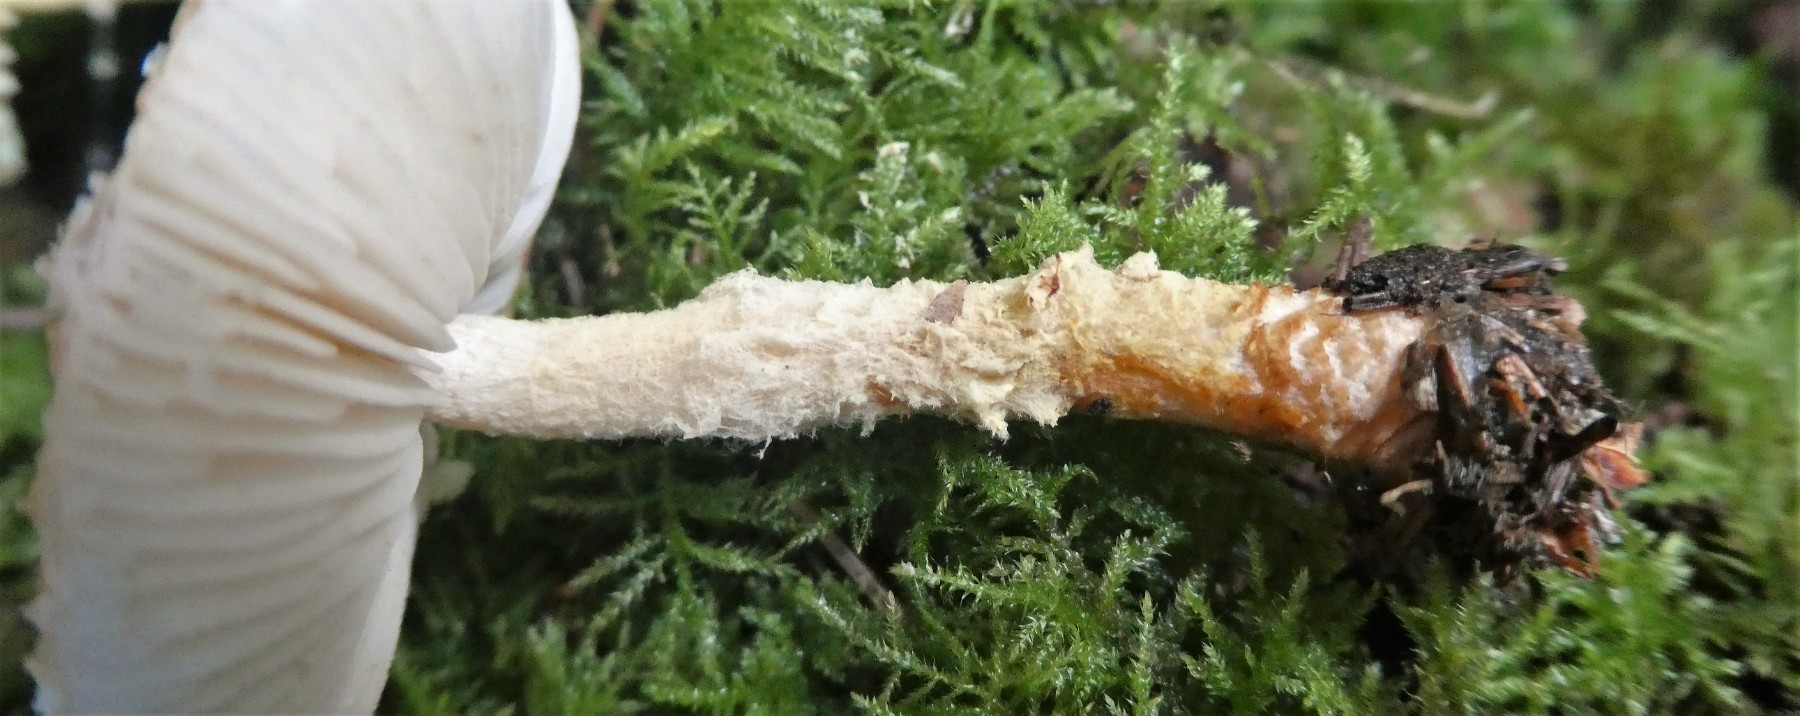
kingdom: Fungi
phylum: Basidiomycota
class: Agaricomycetes
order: Agaricales
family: Agaricaceae
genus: Lepiota
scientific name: Lepiota magnispora
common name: gulfnugget parasolhat
